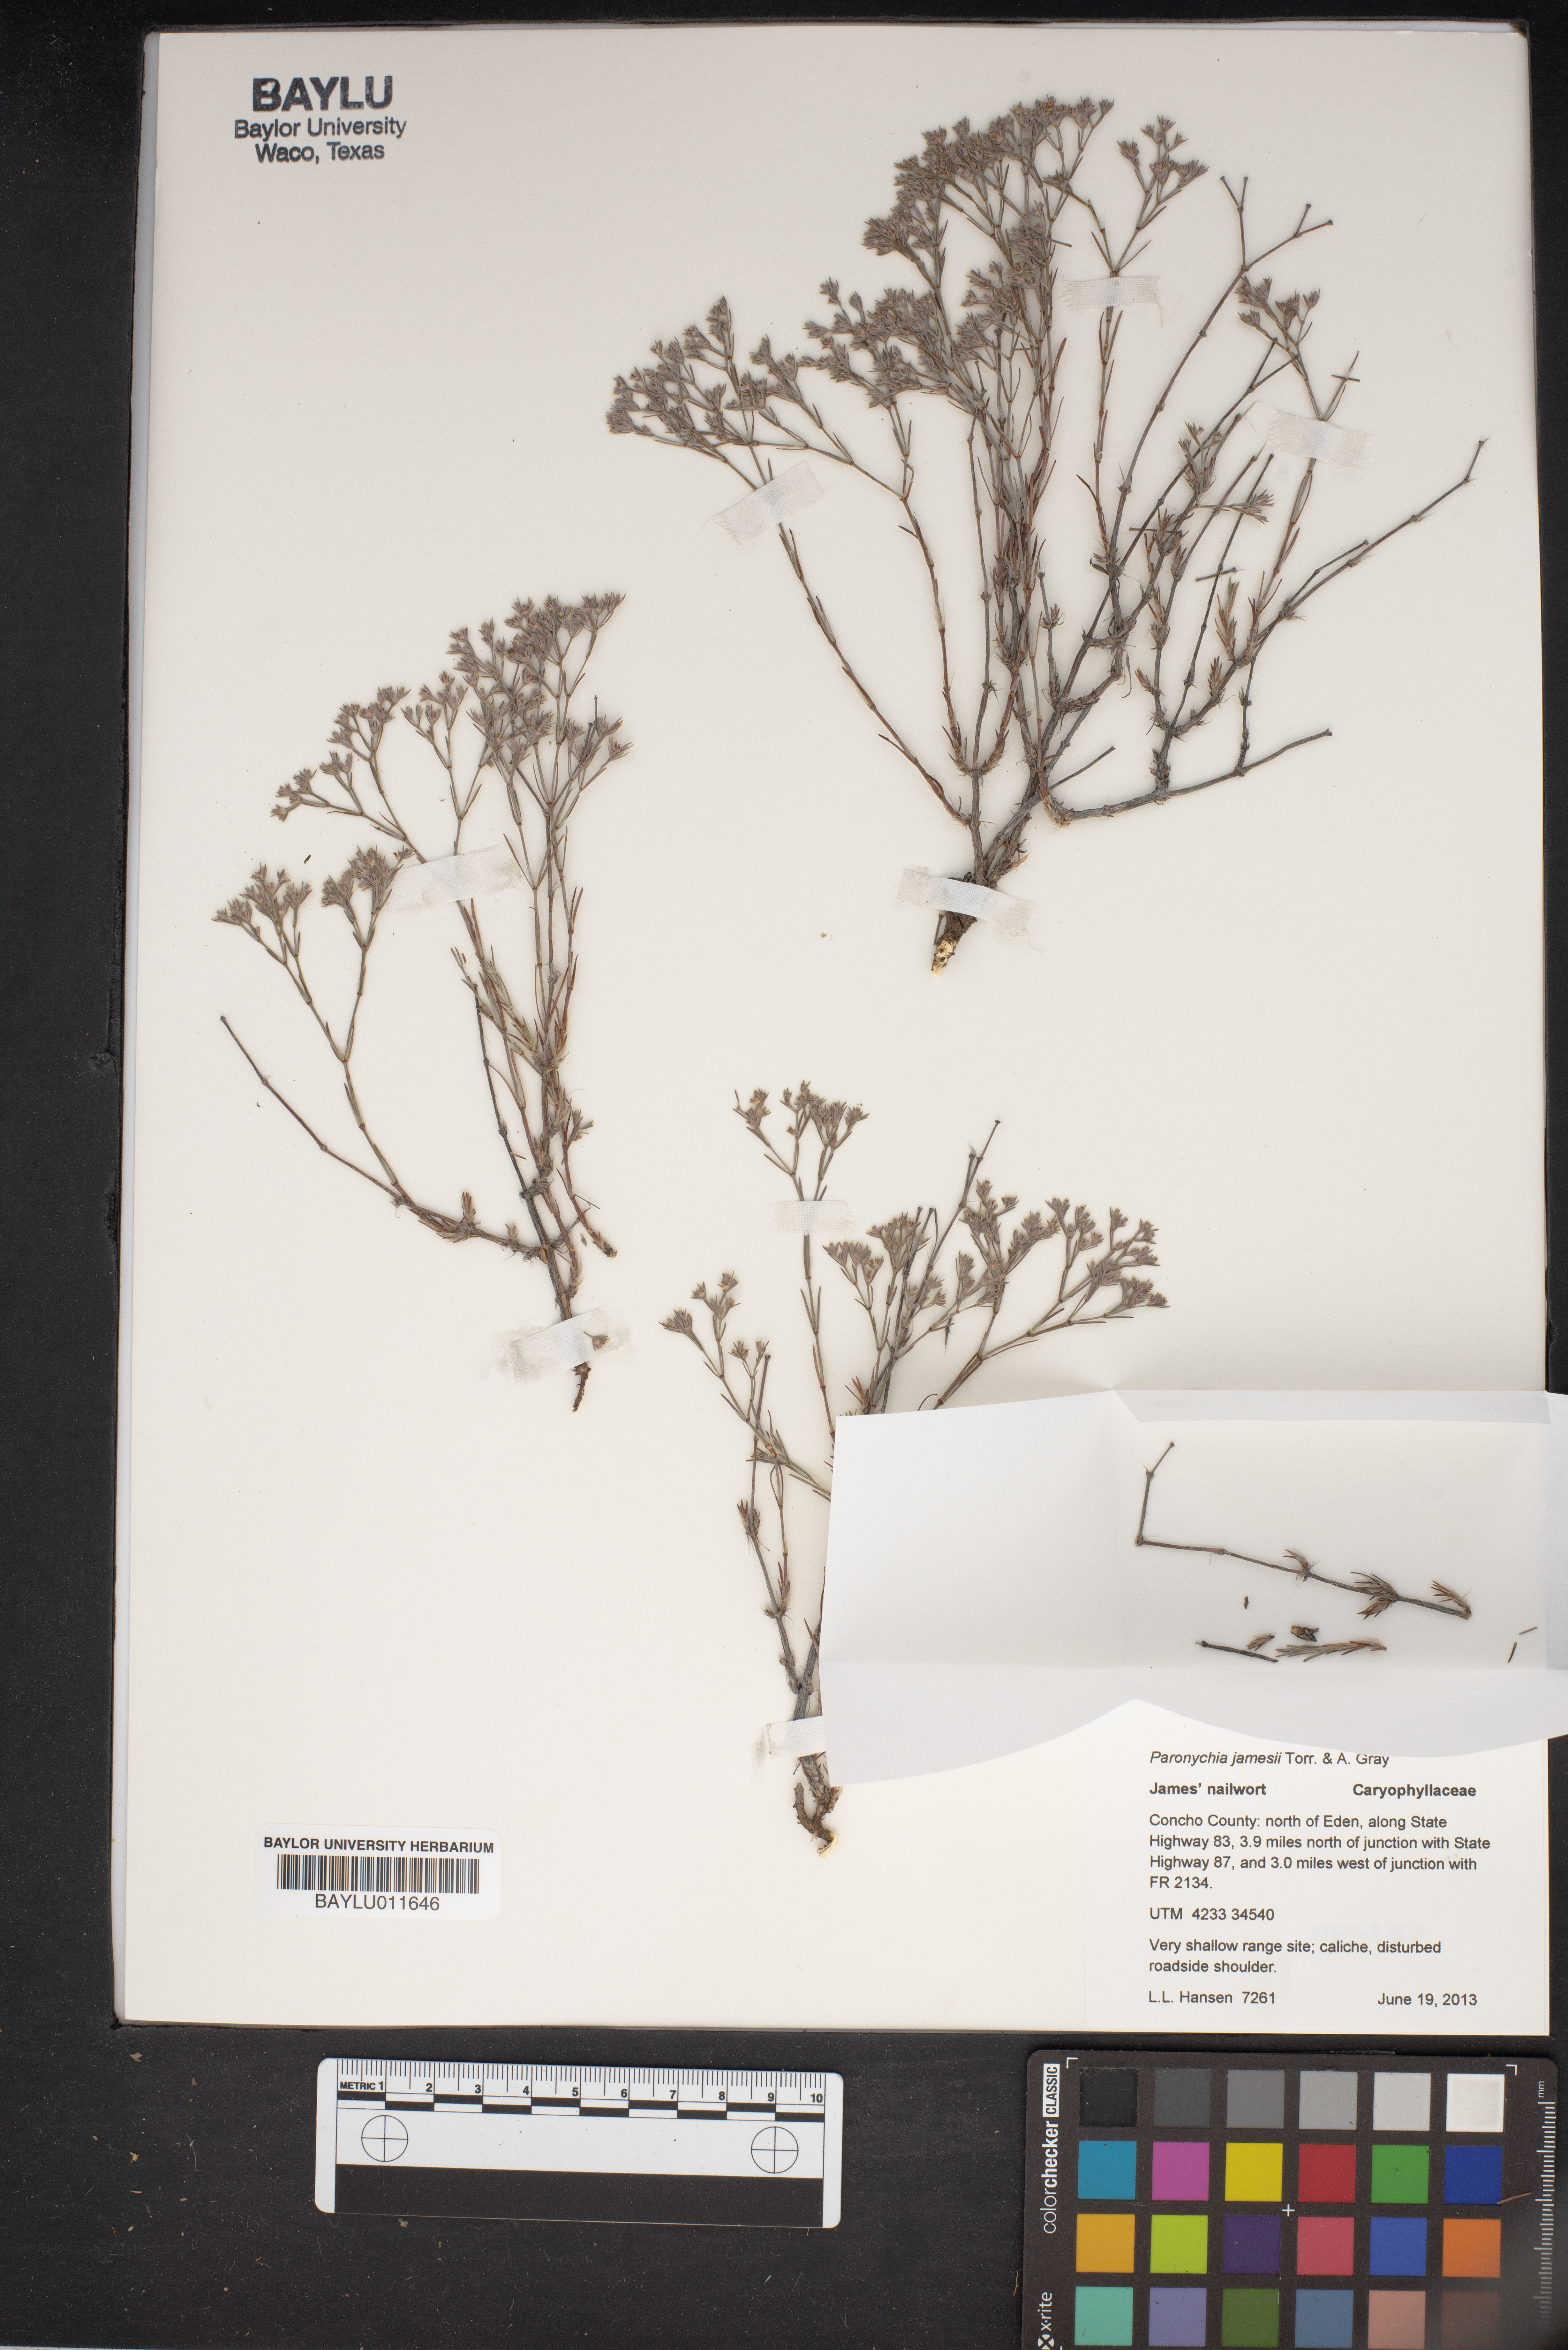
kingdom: Plantae
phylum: Tracheophyta
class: Magnoliopsida
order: Caryophyllales
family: Caryophyllaceae
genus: Paronychia
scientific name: Paronychia jamesii
